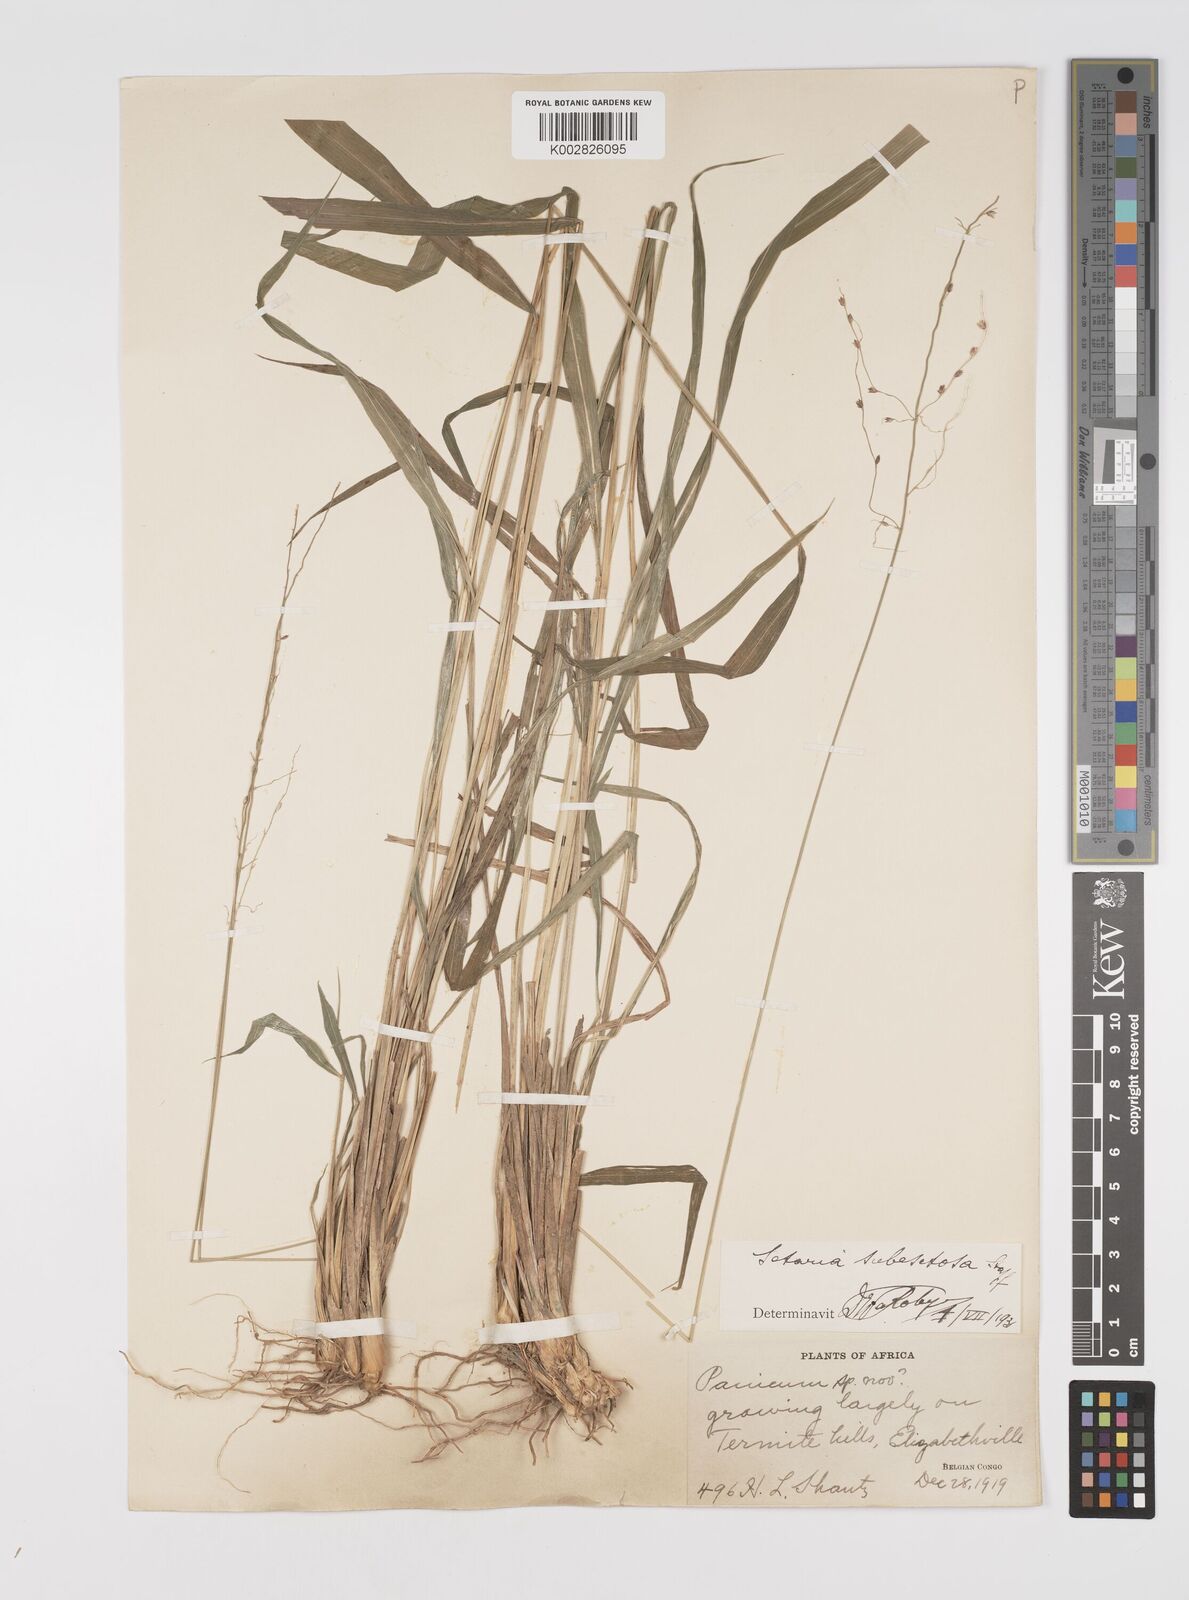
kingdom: Plantae
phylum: Tracheophyta
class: Liliopsida
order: Poales
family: Poaceae
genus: Setaria
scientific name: Setaria lindenbergiana
